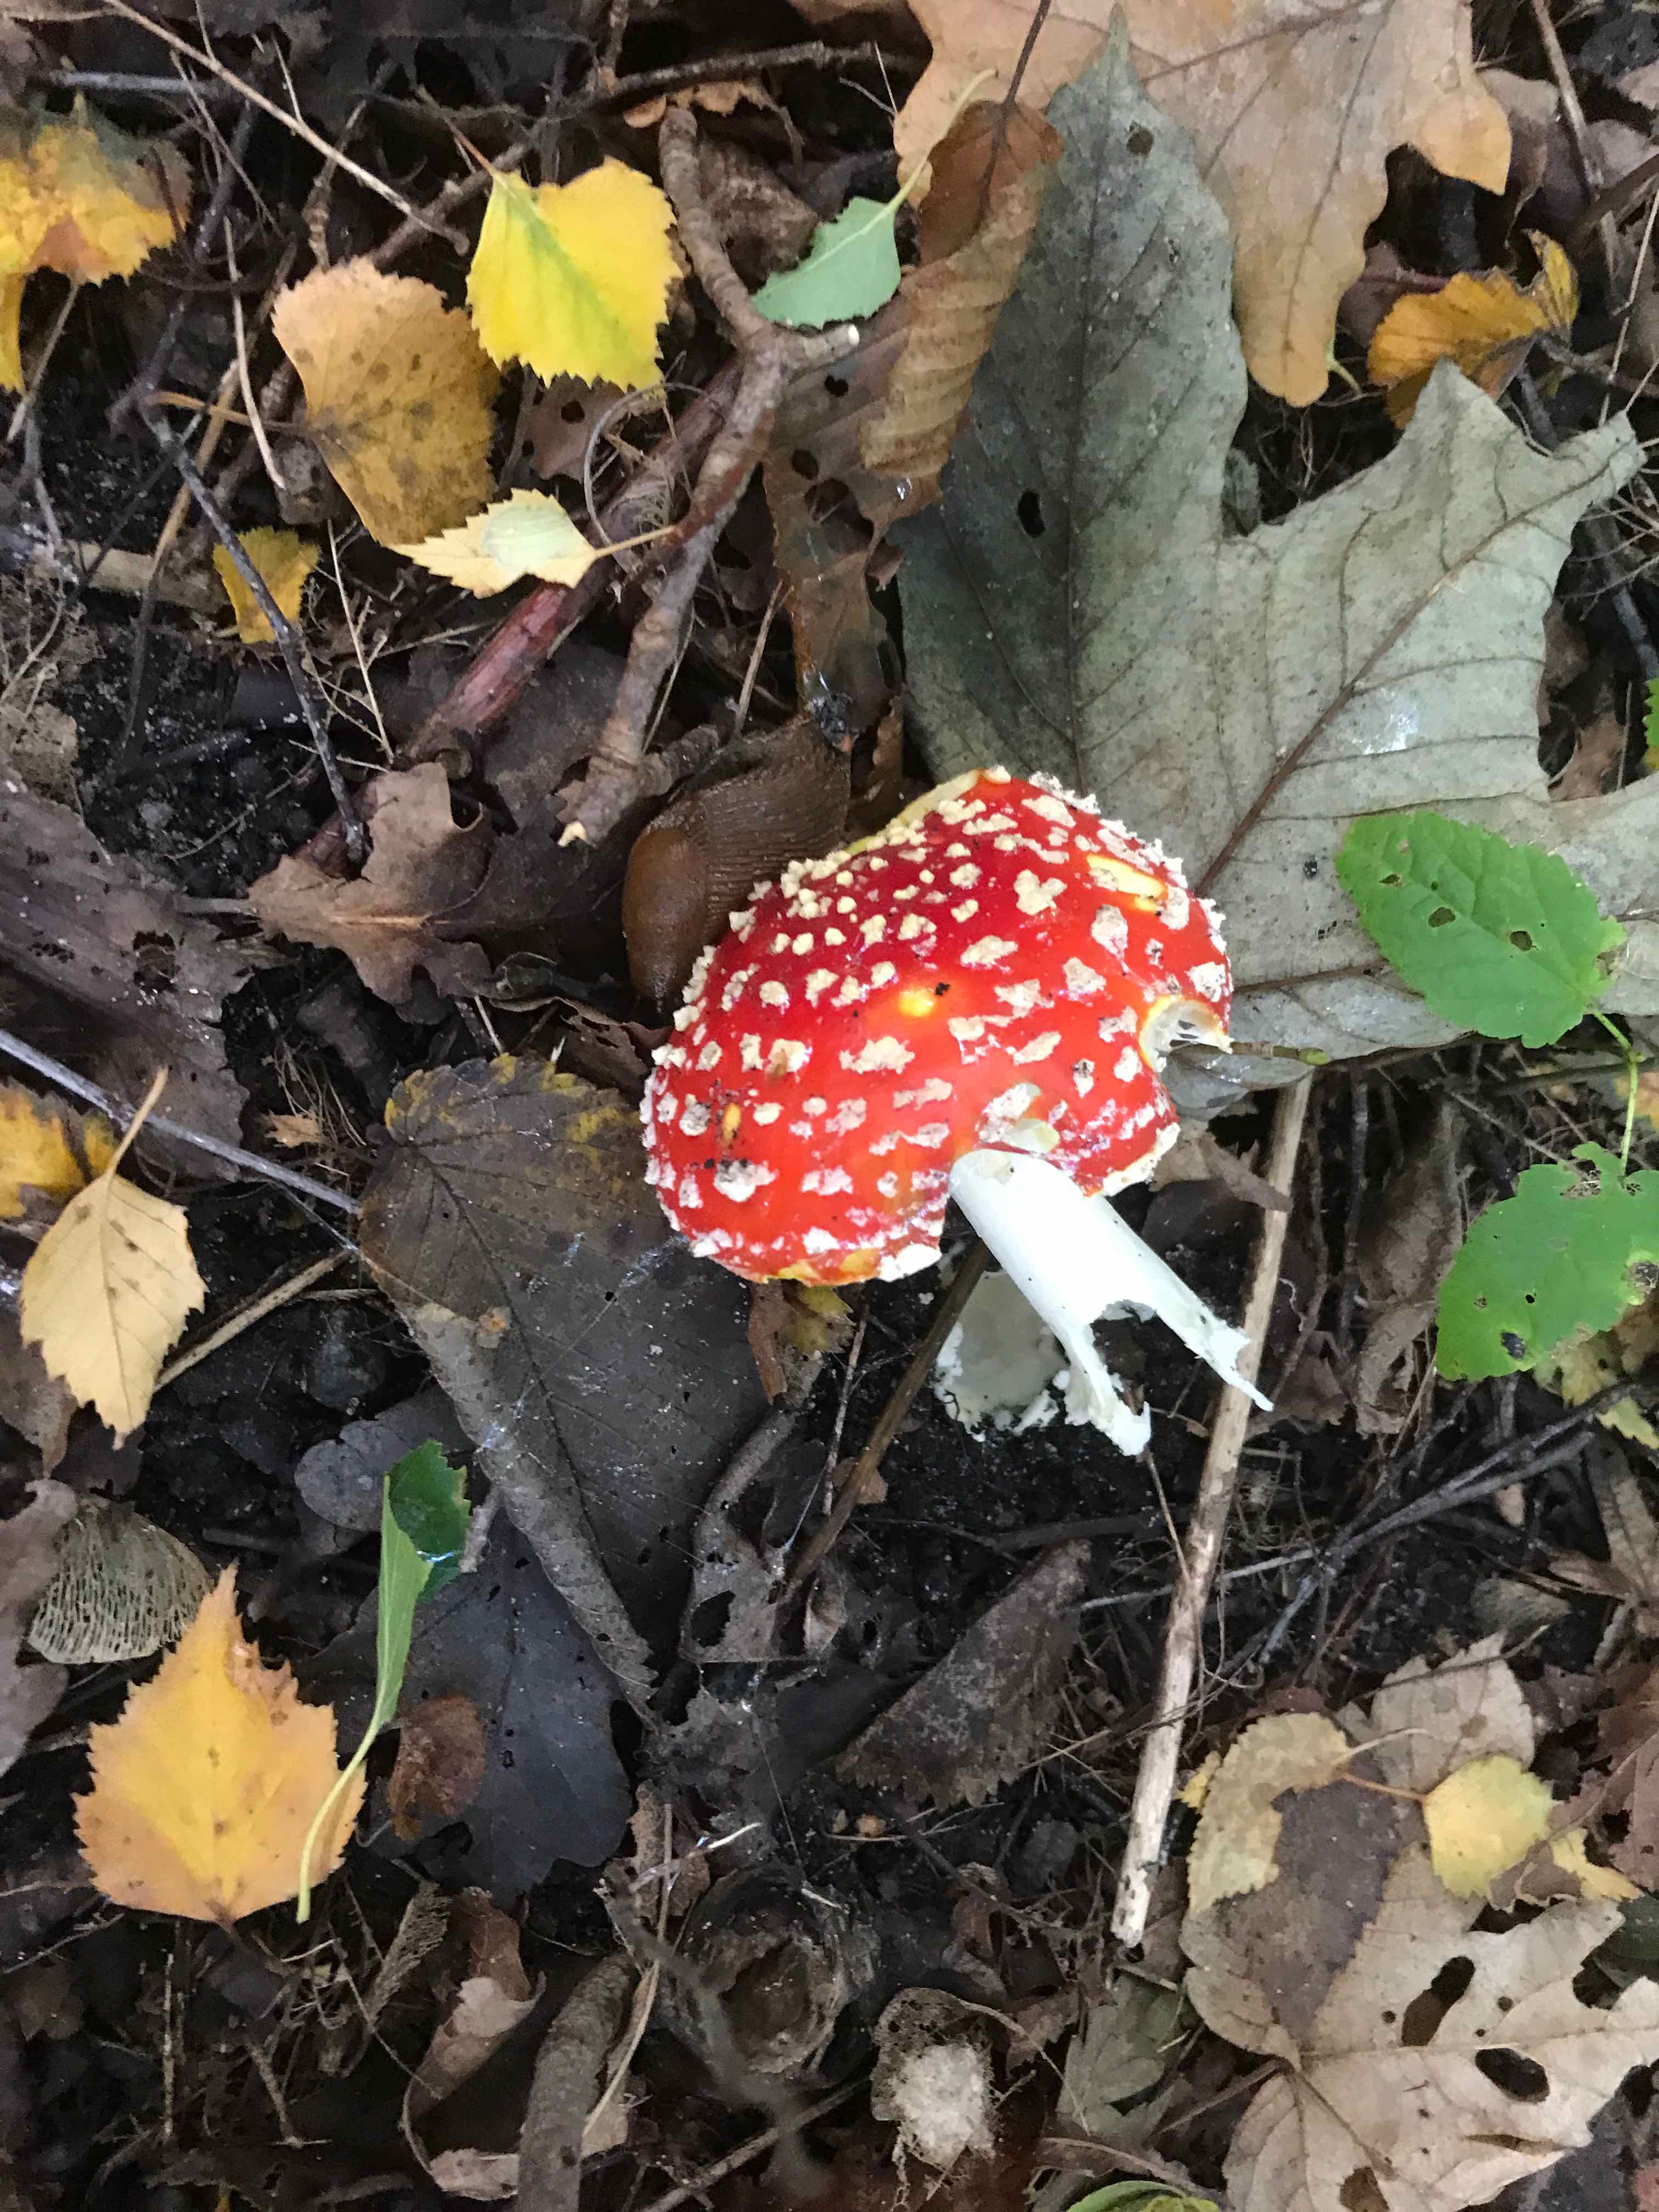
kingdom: Fungi
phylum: Basidiomycota
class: Agaricomycetes
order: Agaricales
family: Amanitaceae
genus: Amanita
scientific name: Amanita muscaria
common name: rød fluesvamp
